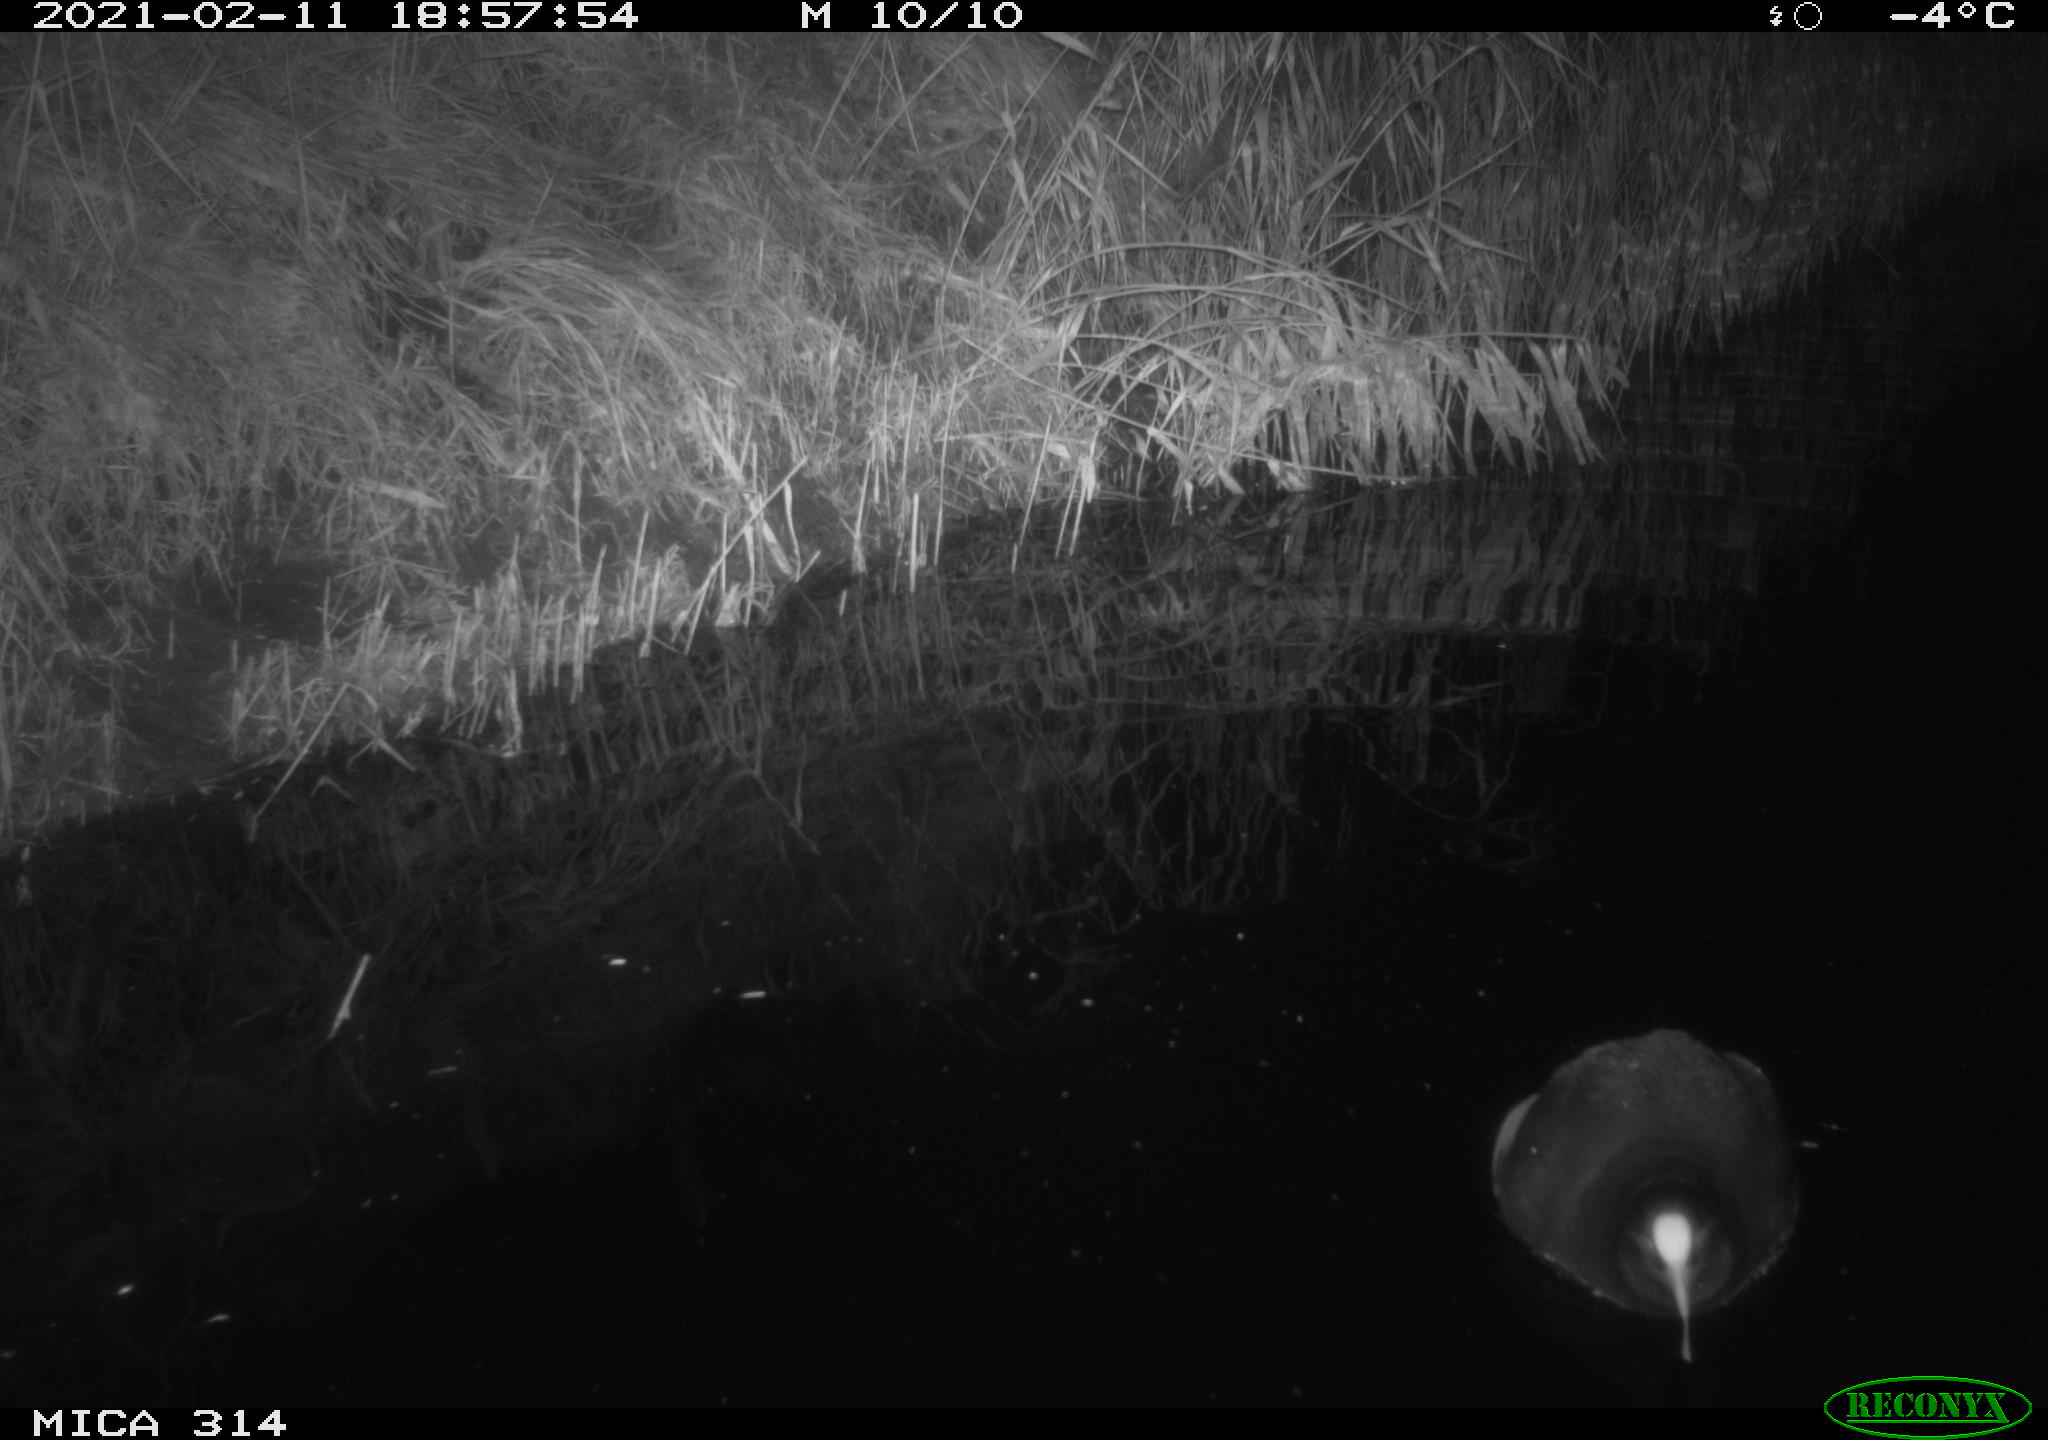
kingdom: Animalia
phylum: Chordata
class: Aves
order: Gruiformes
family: Rallidae
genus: Fulica
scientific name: Fulica atra
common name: Eurasian coot
